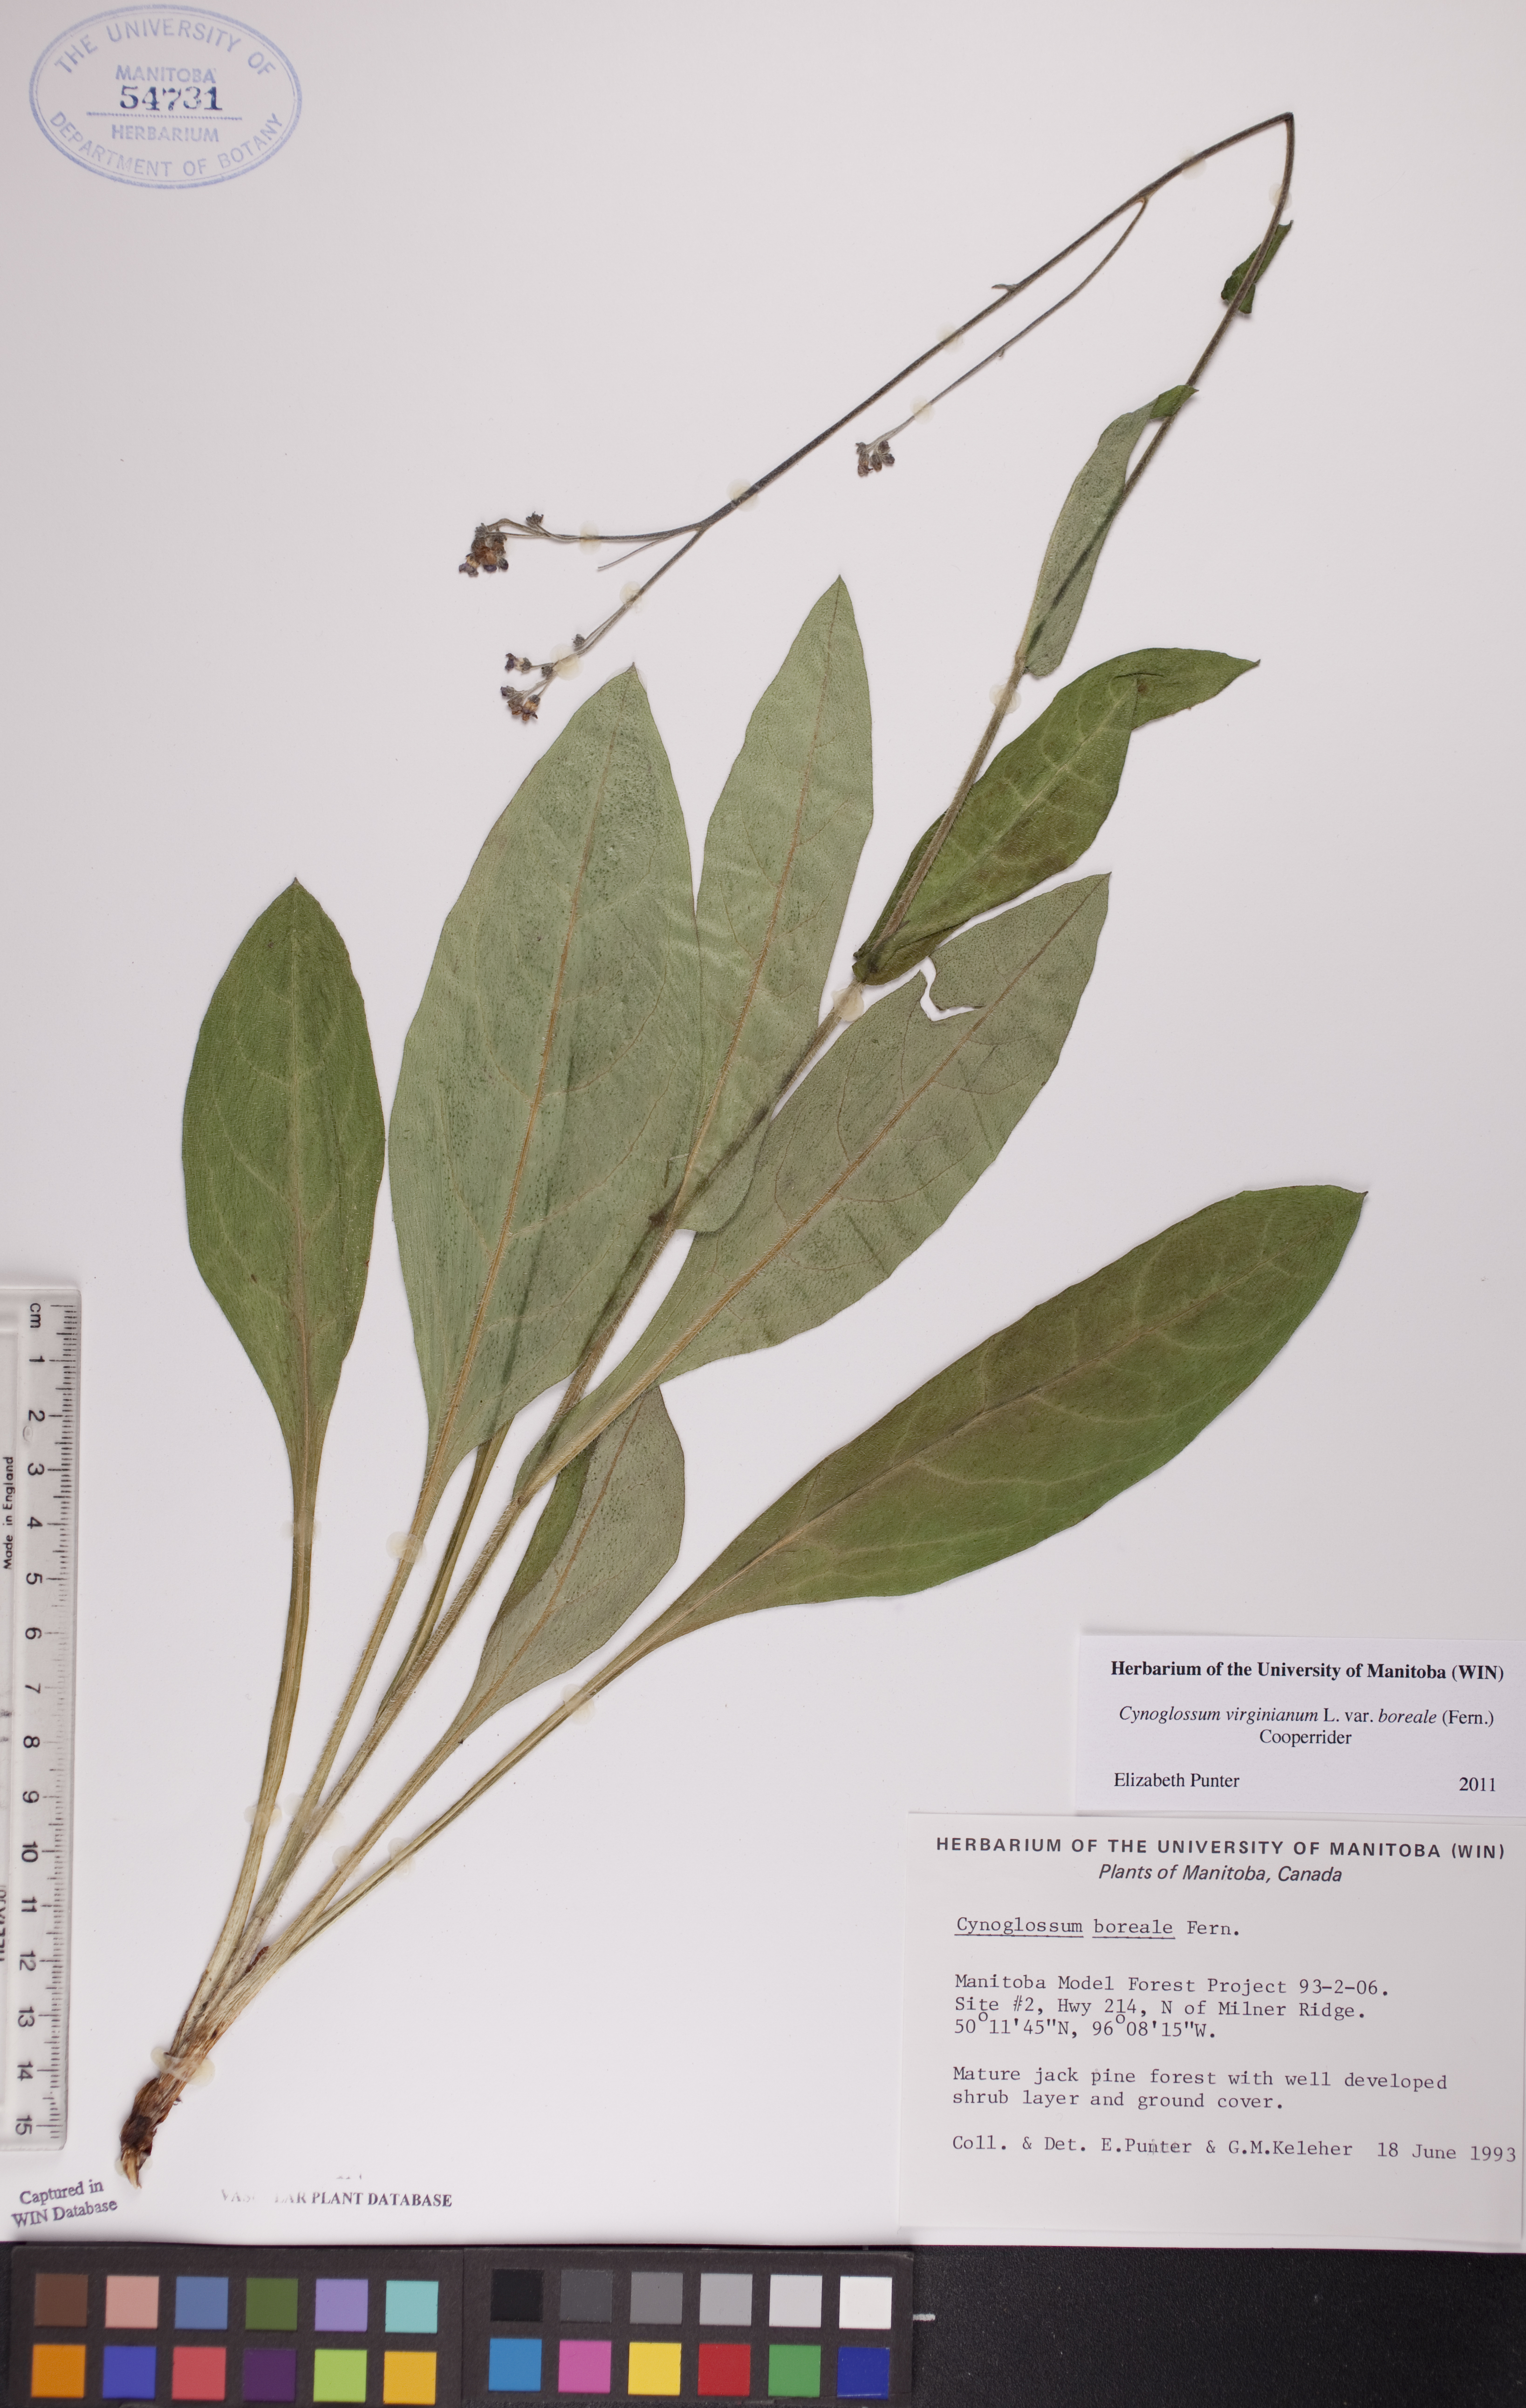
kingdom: Plantae
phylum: Tracheophyta
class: Magnoliopsida
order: Boraginales
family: Boraginaceae
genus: Andersonglossum
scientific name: Andersonglossum boreale
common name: Northern hound's-tongue
